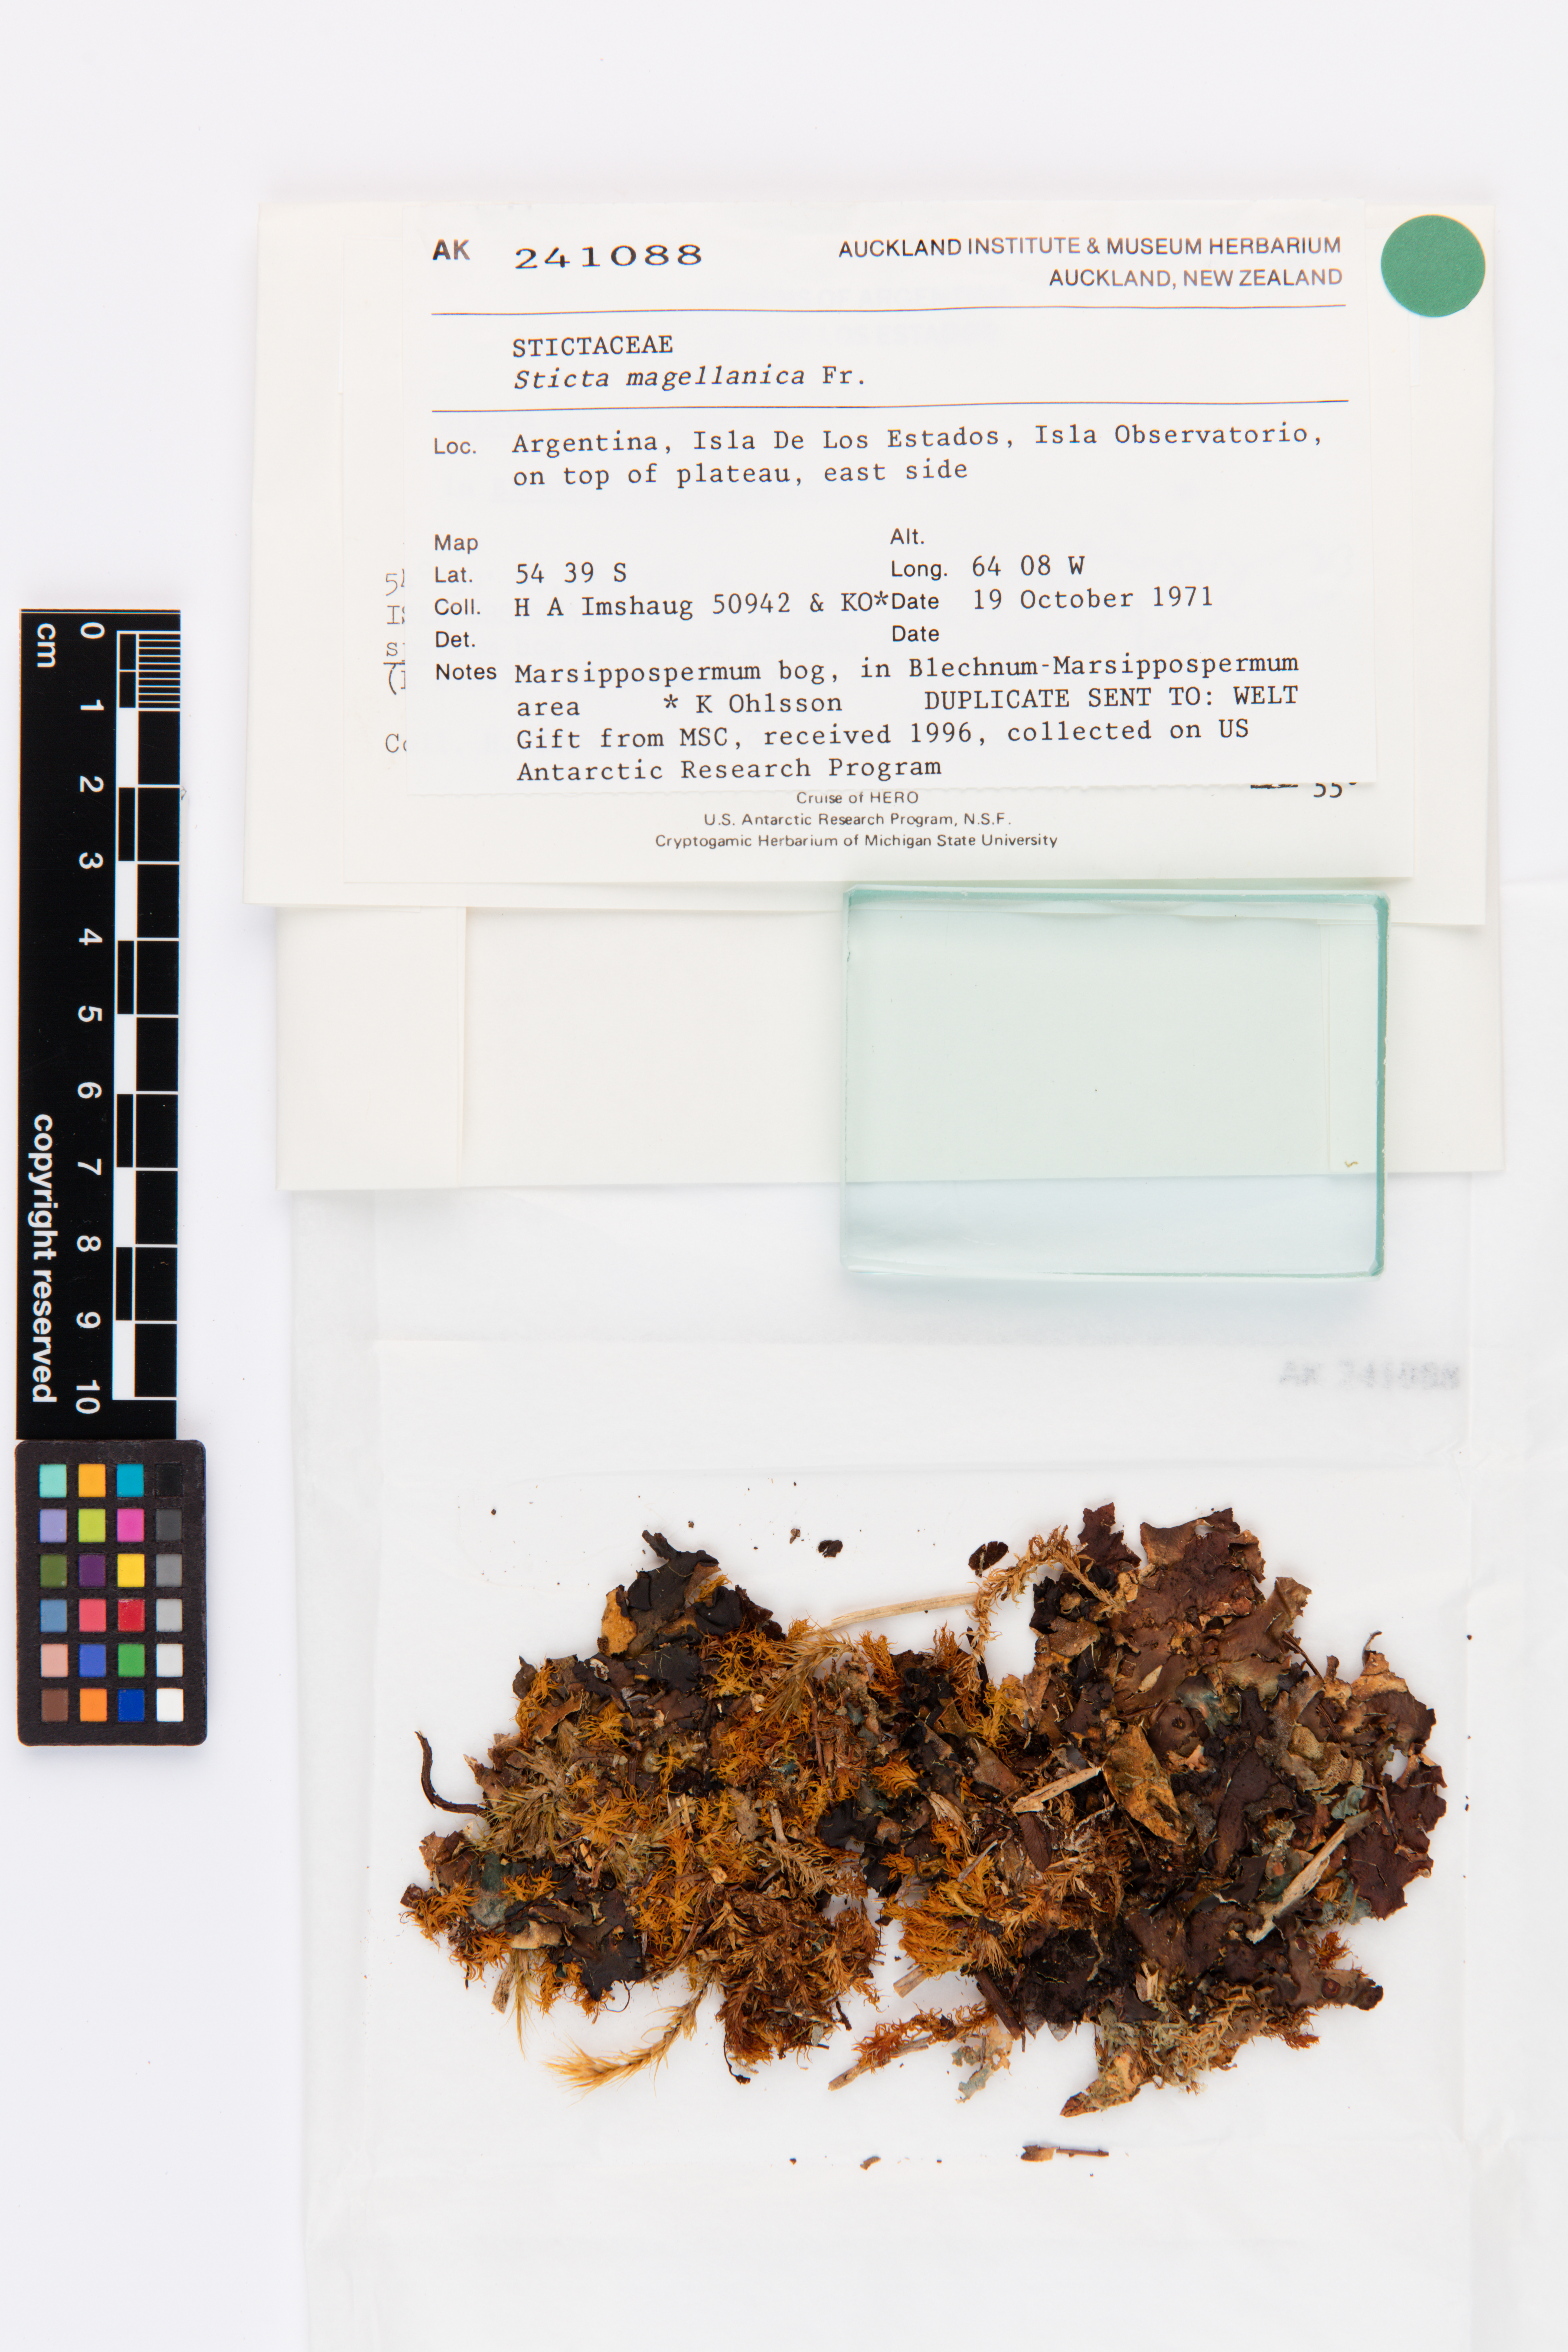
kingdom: Fungi
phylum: Ascomycota
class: Lecanoromycetes
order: Peltigerales
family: Lobariaceae
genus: Sticta
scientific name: Sticta
